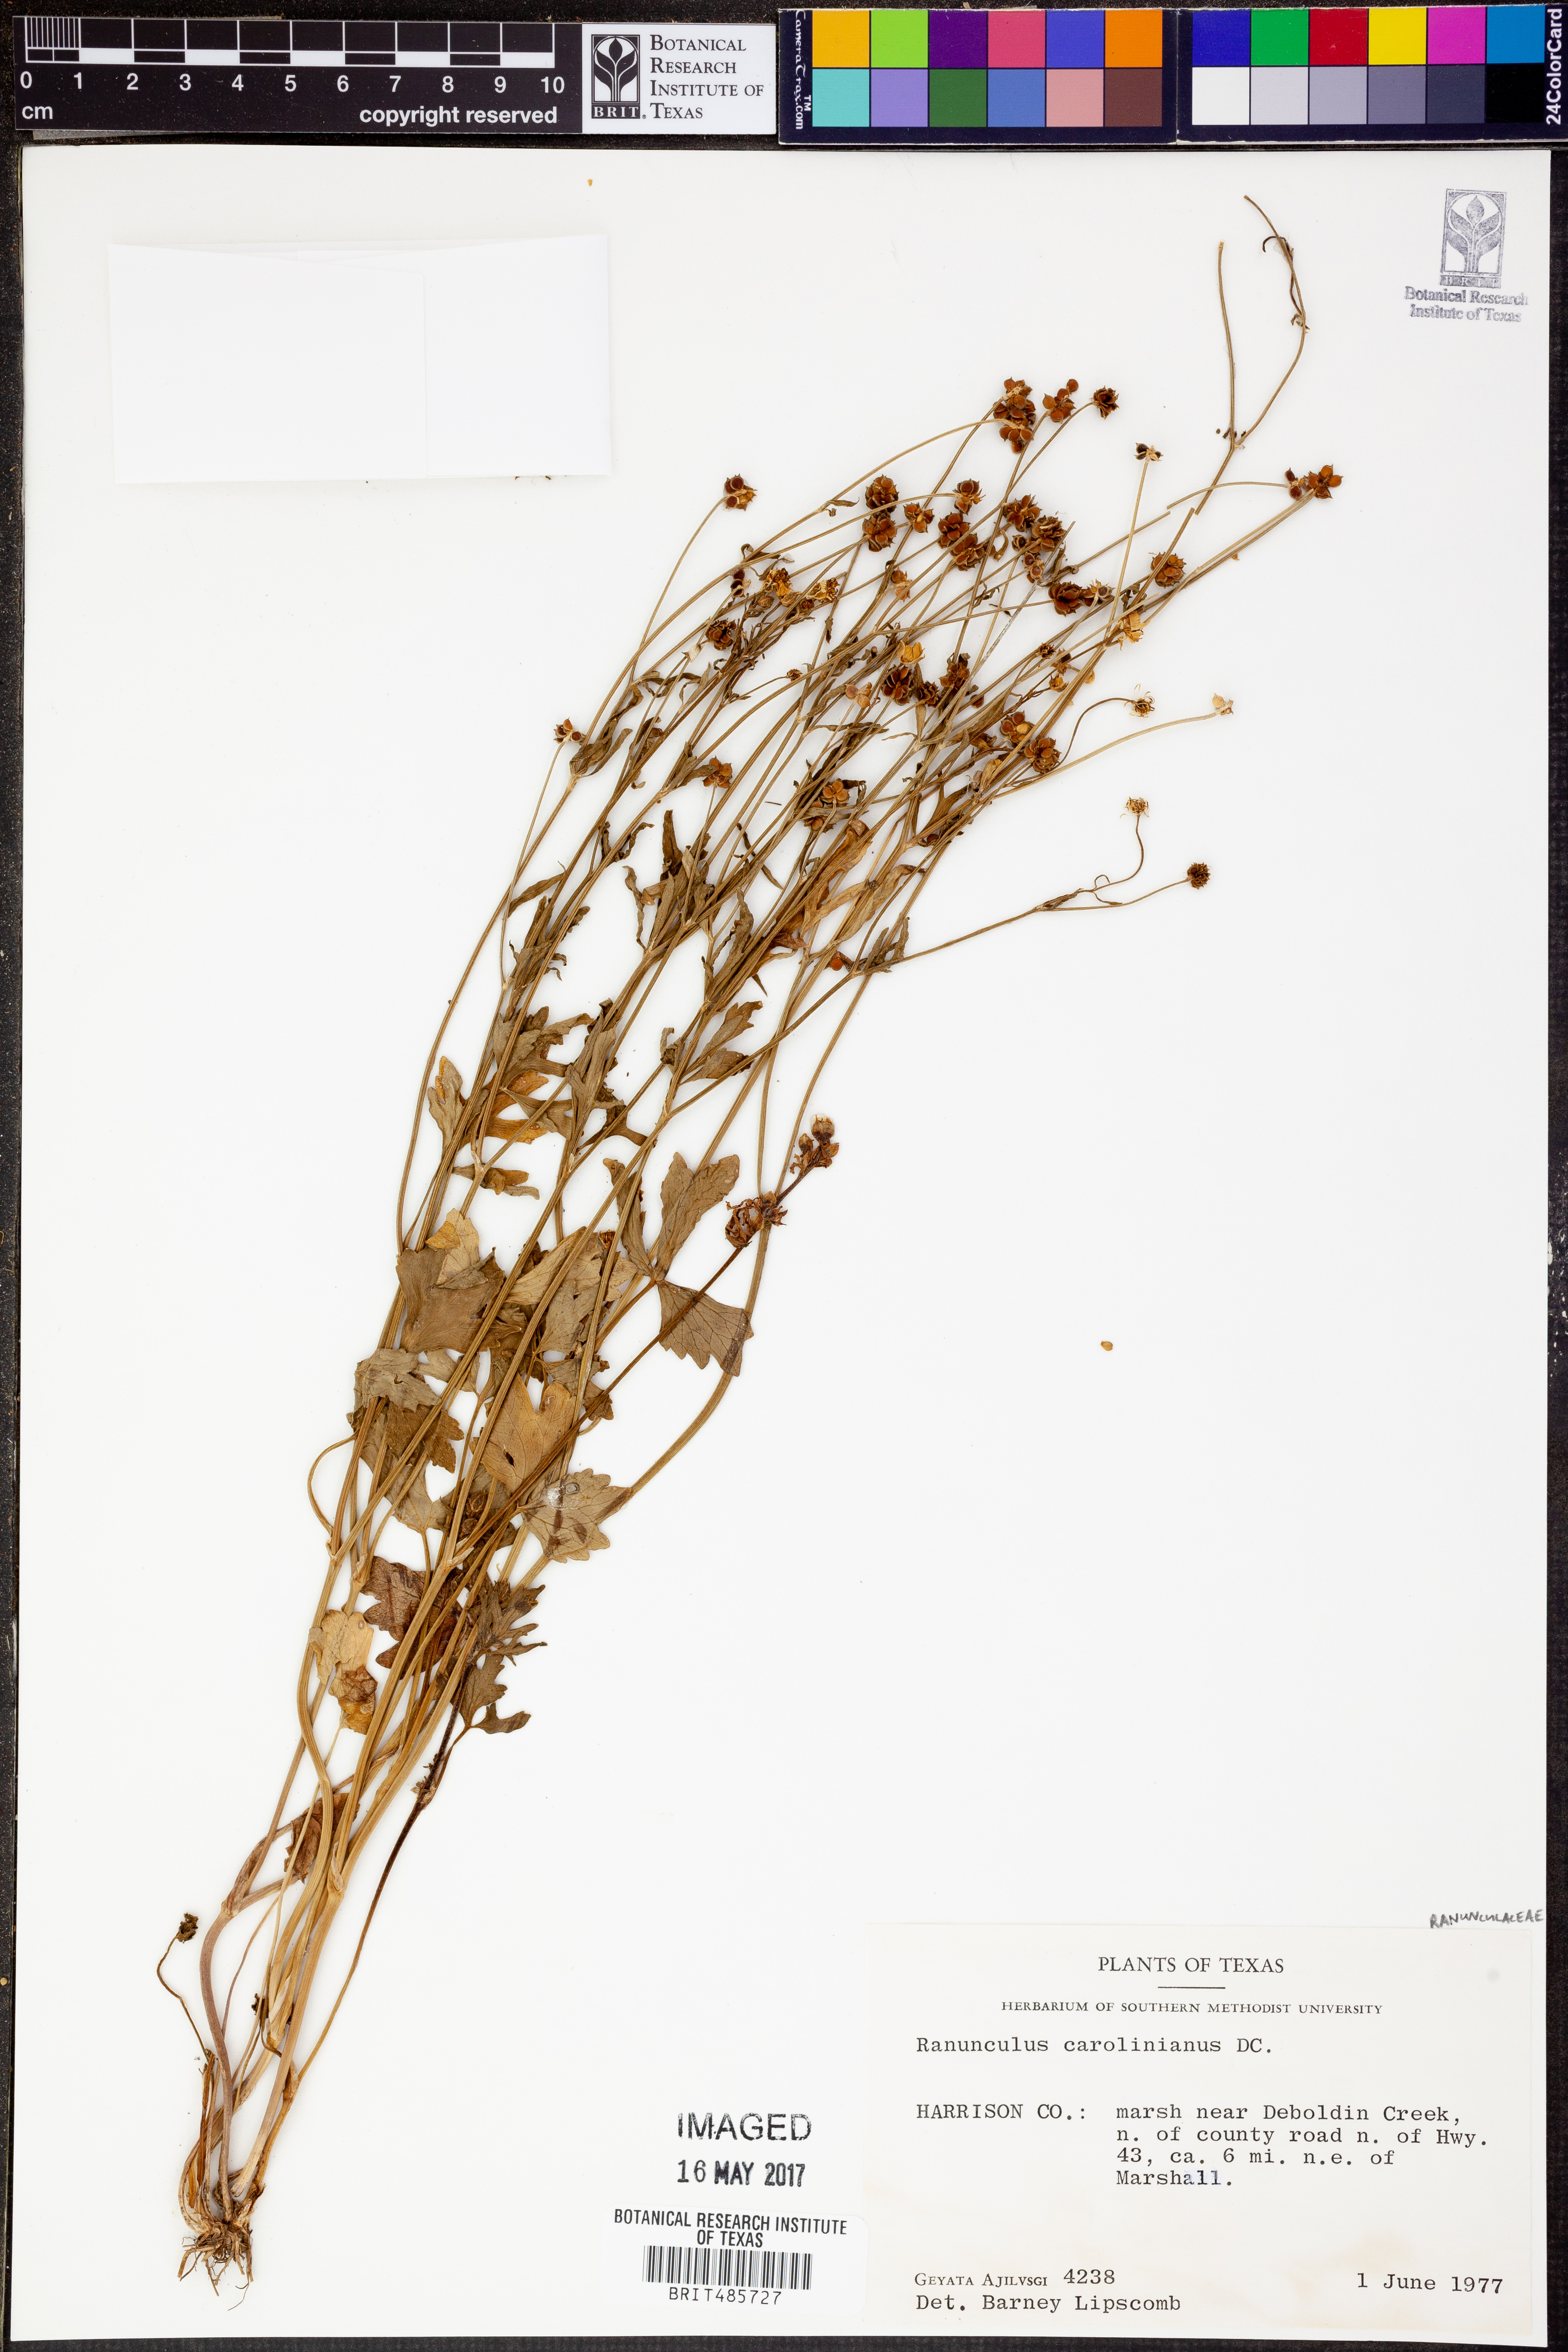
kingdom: Plantae
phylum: Tracheophyta
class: Magnoliopsida
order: Ranunculales
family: Ranunculaceae
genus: Ranunculus
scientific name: Ranunculus hispidus
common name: Bristly buttercup
